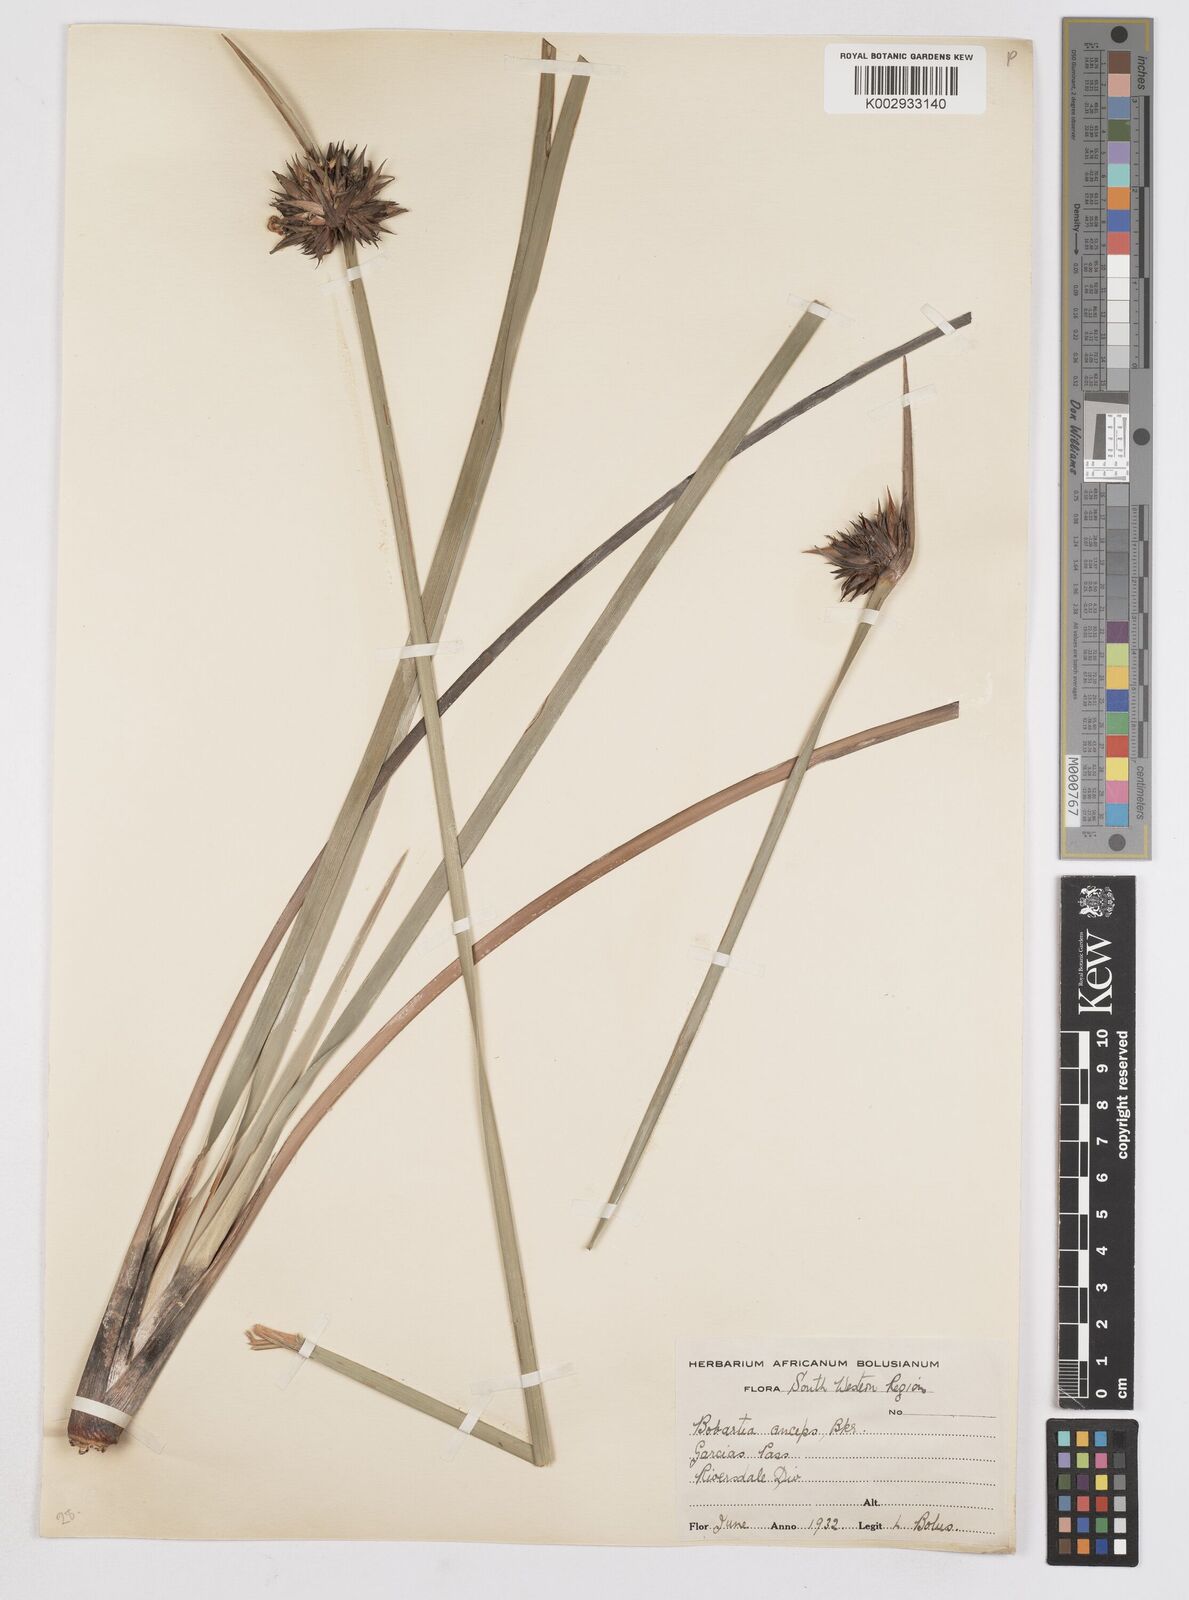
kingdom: Plantae
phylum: Tracheophyta
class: Liliopsida
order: Asparagales
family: Iridaceae
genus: Bobartia
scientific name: Bobartia macrospatha
